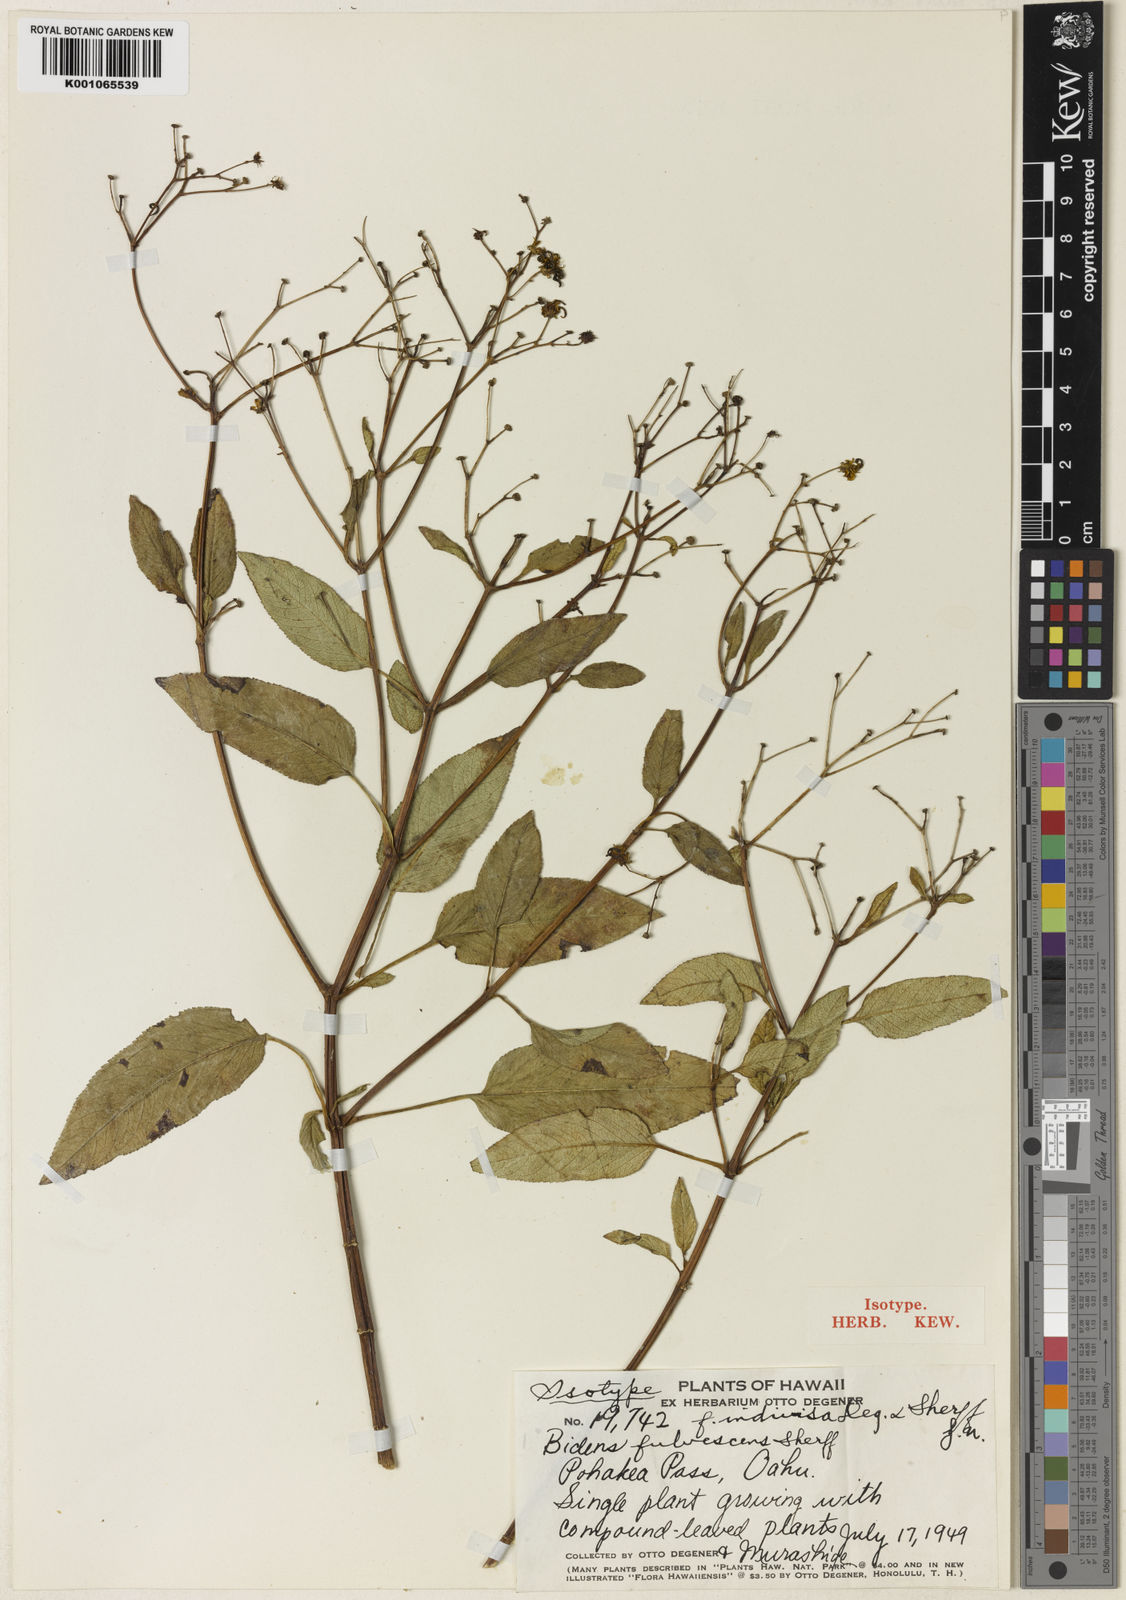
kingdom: Plantae
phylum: Tracheophyta
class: Magnoliopsida
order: Asterales
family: Asteraceae
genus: Bidens
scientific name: Bidens
